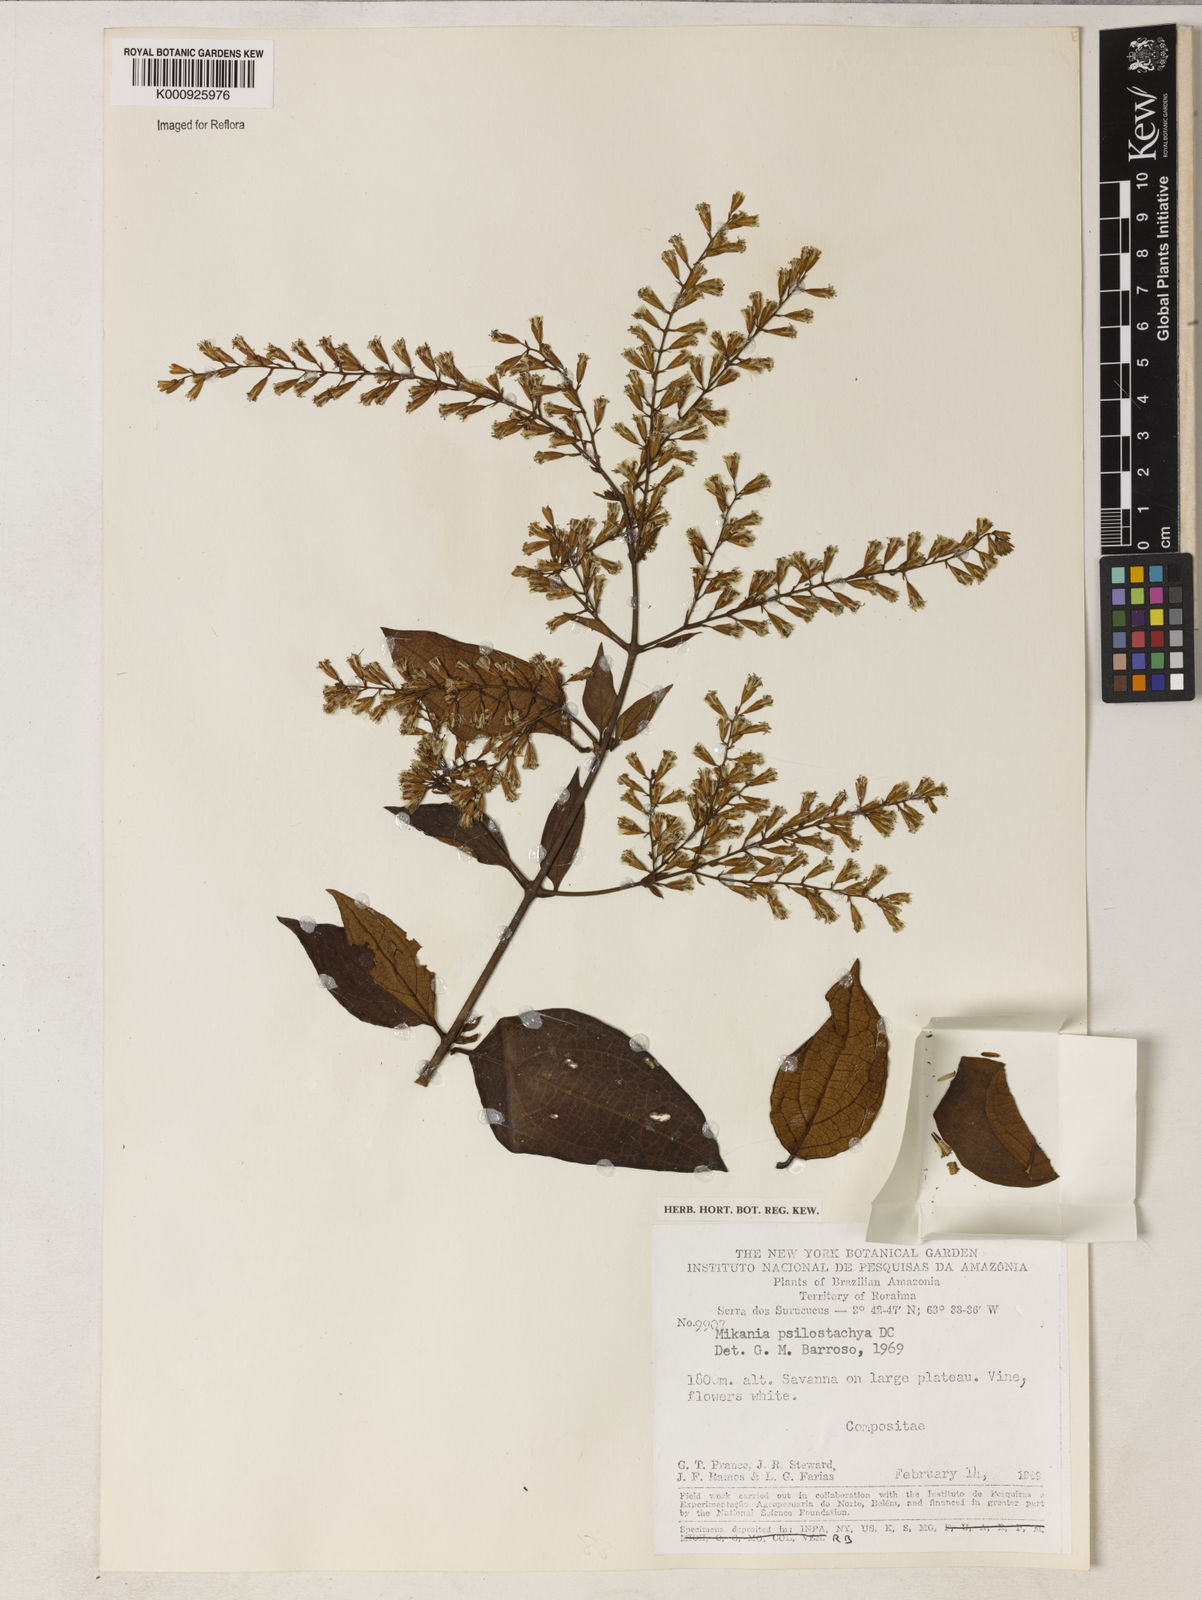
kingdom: Plantae
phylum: Tracheophyta
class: Magnoliopsida
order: Asterales
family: Asteraceae
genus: Mikania
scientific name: Mikania psilostachya
